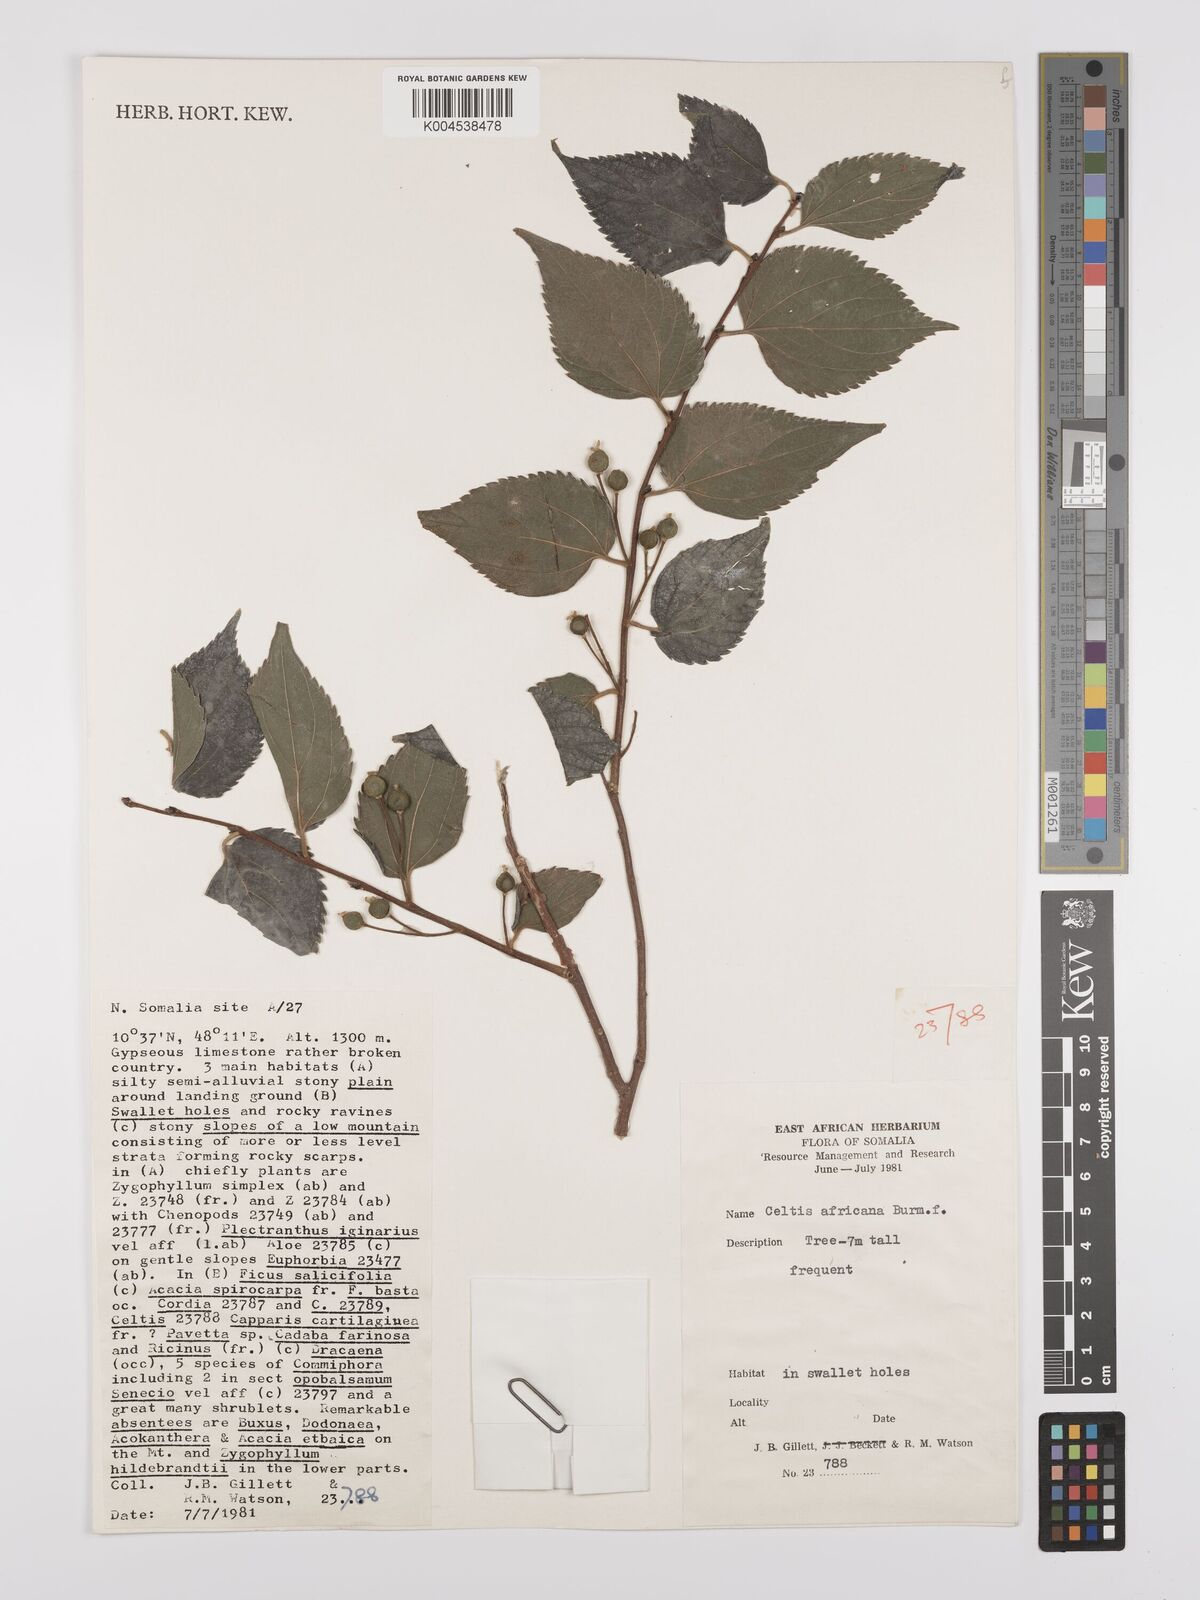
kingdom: Plantae
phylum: Tracheophyta
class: Magnoliopsida
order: Rosales
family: Cannabaceae
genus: Celtis
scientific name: Celtis africana
